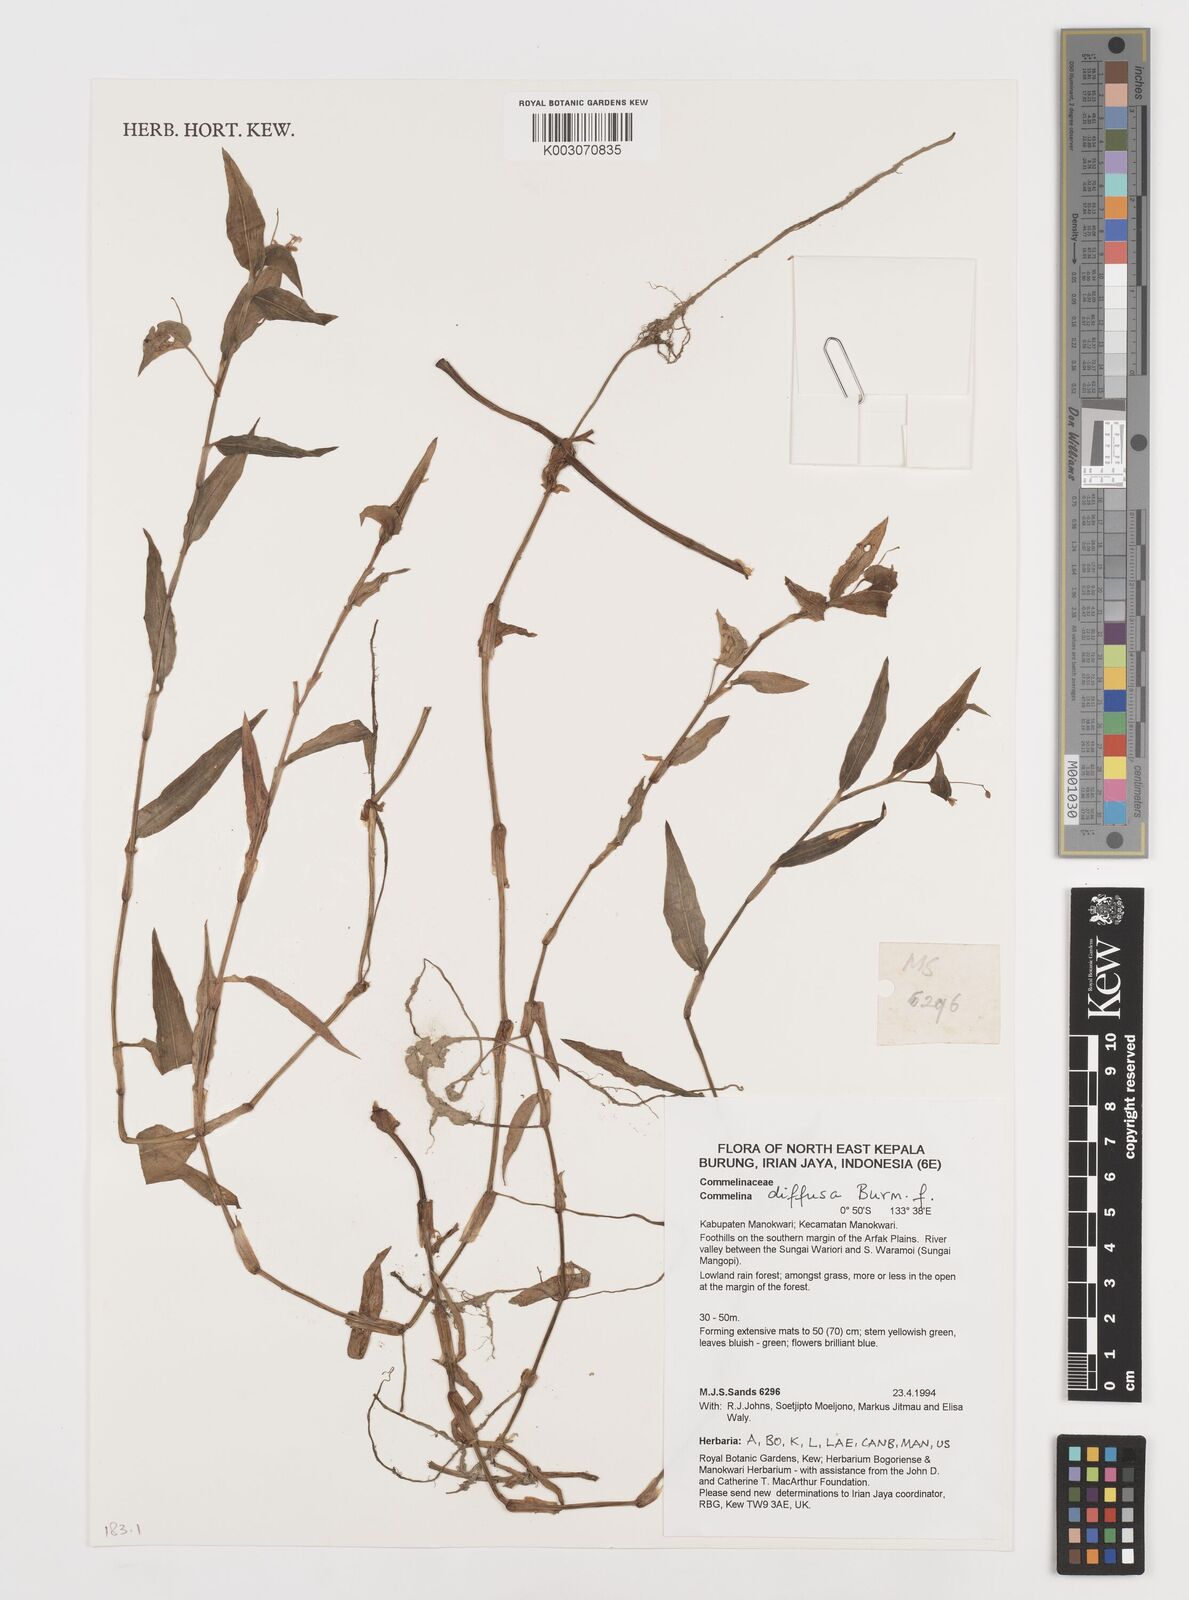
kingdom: Plantae
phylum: Tracheophyta
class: Liliopsida
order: Commelinales
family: Commelinaceae
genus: Commelina
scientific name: Commelina diffusa
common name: Climbing dayflower
